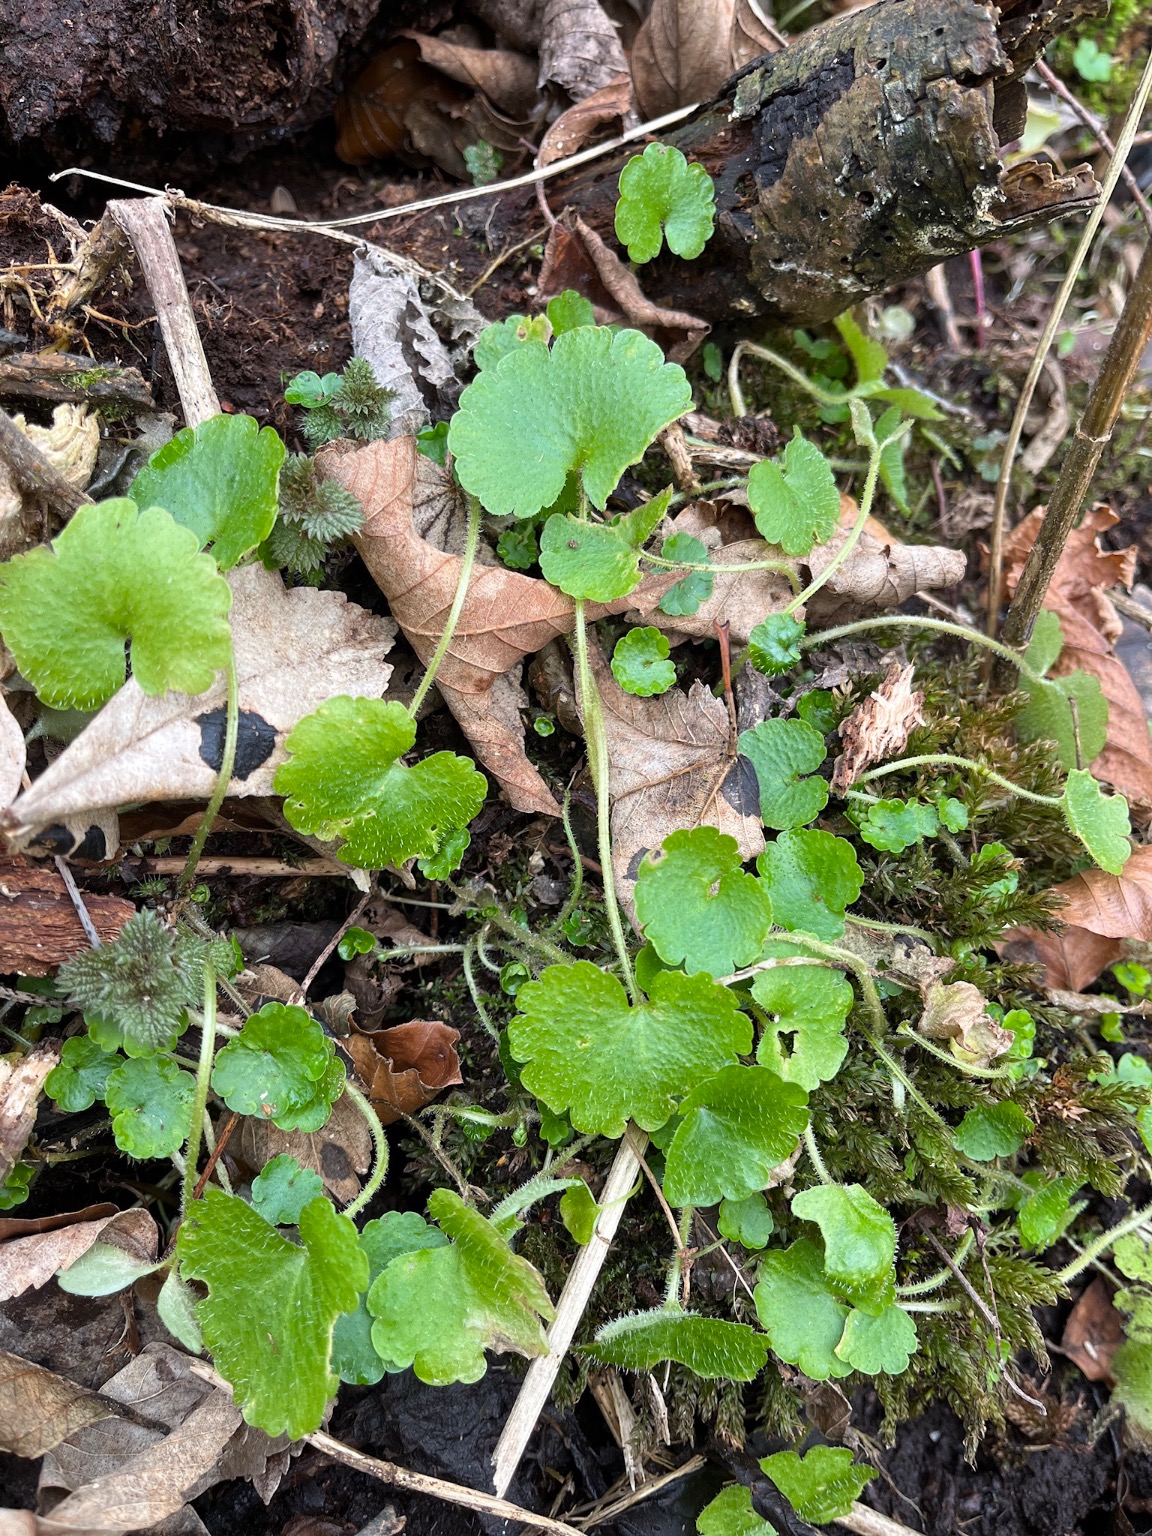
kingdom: Plantae
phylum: Tracheophyta
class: Magnoliopsida
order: Saxifragales
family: Saxifragaceae
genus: Chrysosplenium
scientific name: Chrysosplenium alternifolium
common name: Almindelig milturt
